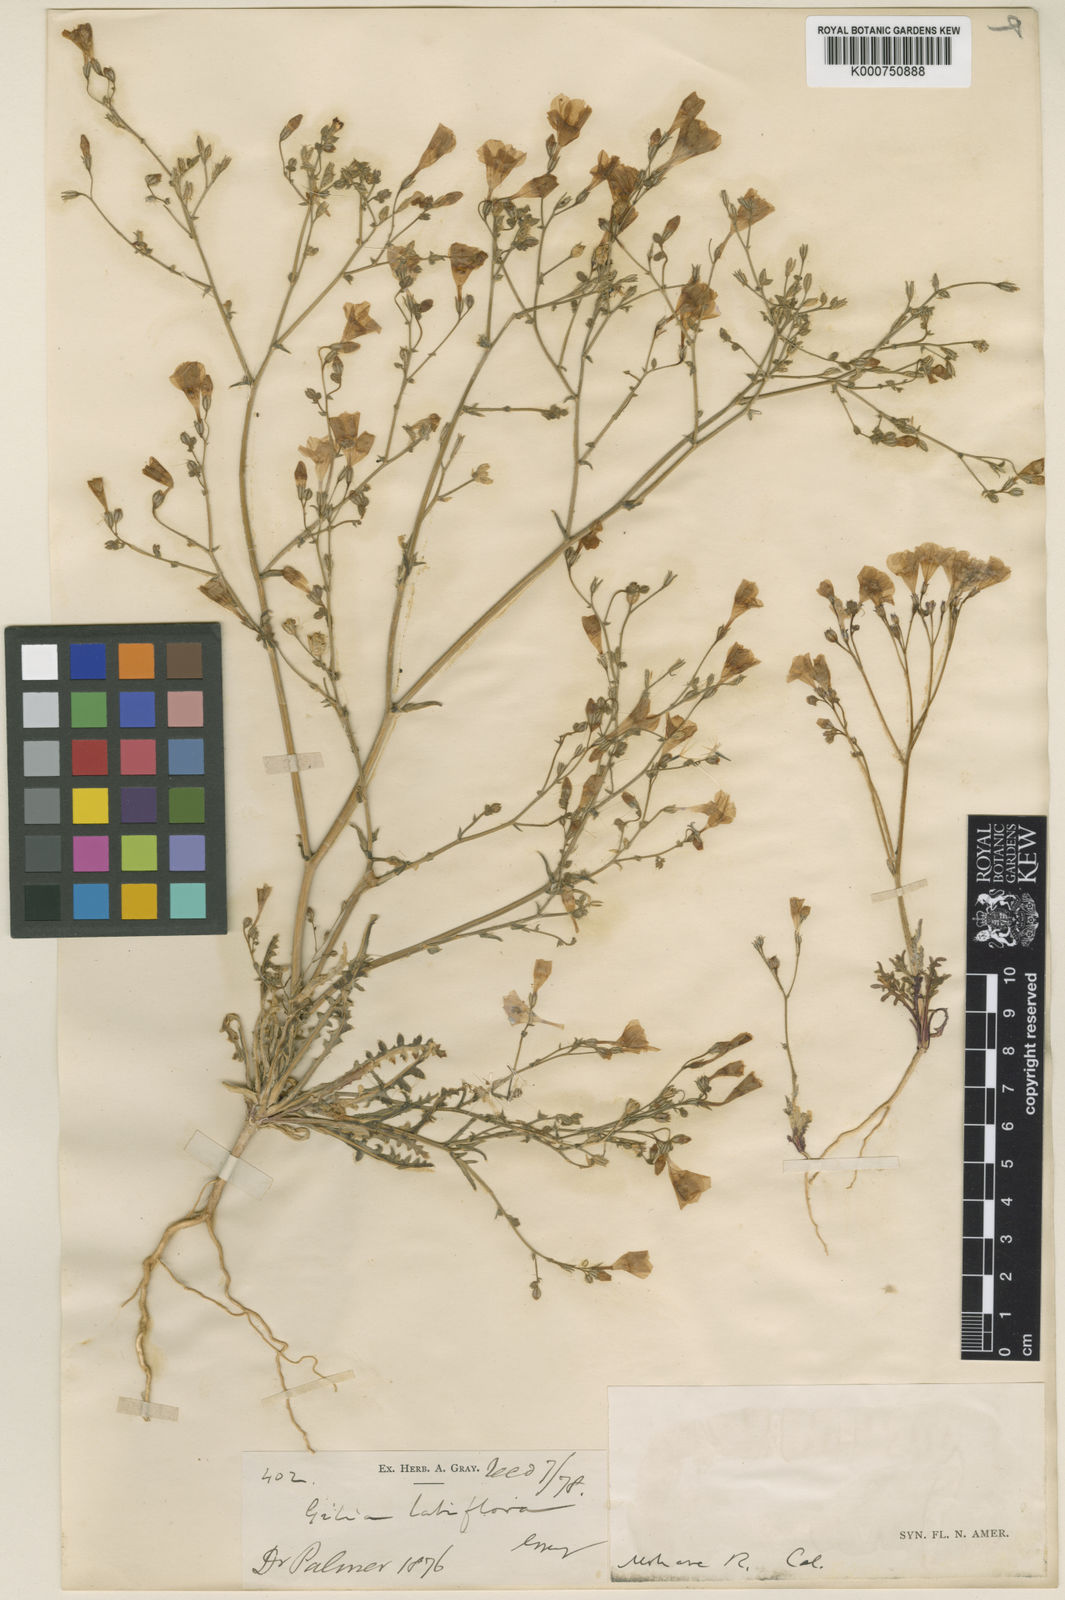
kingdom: Plantae
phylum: Tracheophyta
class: Magnoliopsida
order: Ericales
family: Polemoniaceae
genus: Gilia
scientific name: Gilia latiflora
